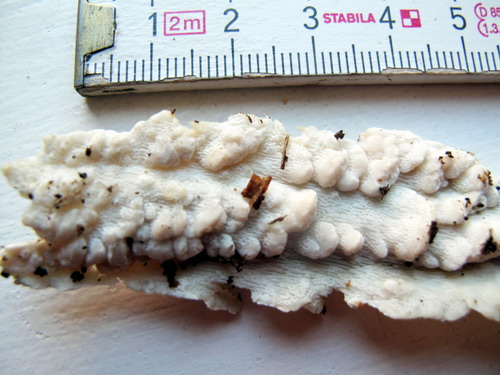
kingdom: Fungi
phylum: Basidiomycota
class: Agaricomycetes
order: Polyporales
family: Fomitopsidaceae
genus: Neoantrodia
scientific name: Neoantrodia serialis
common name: række-sejporesvamp
